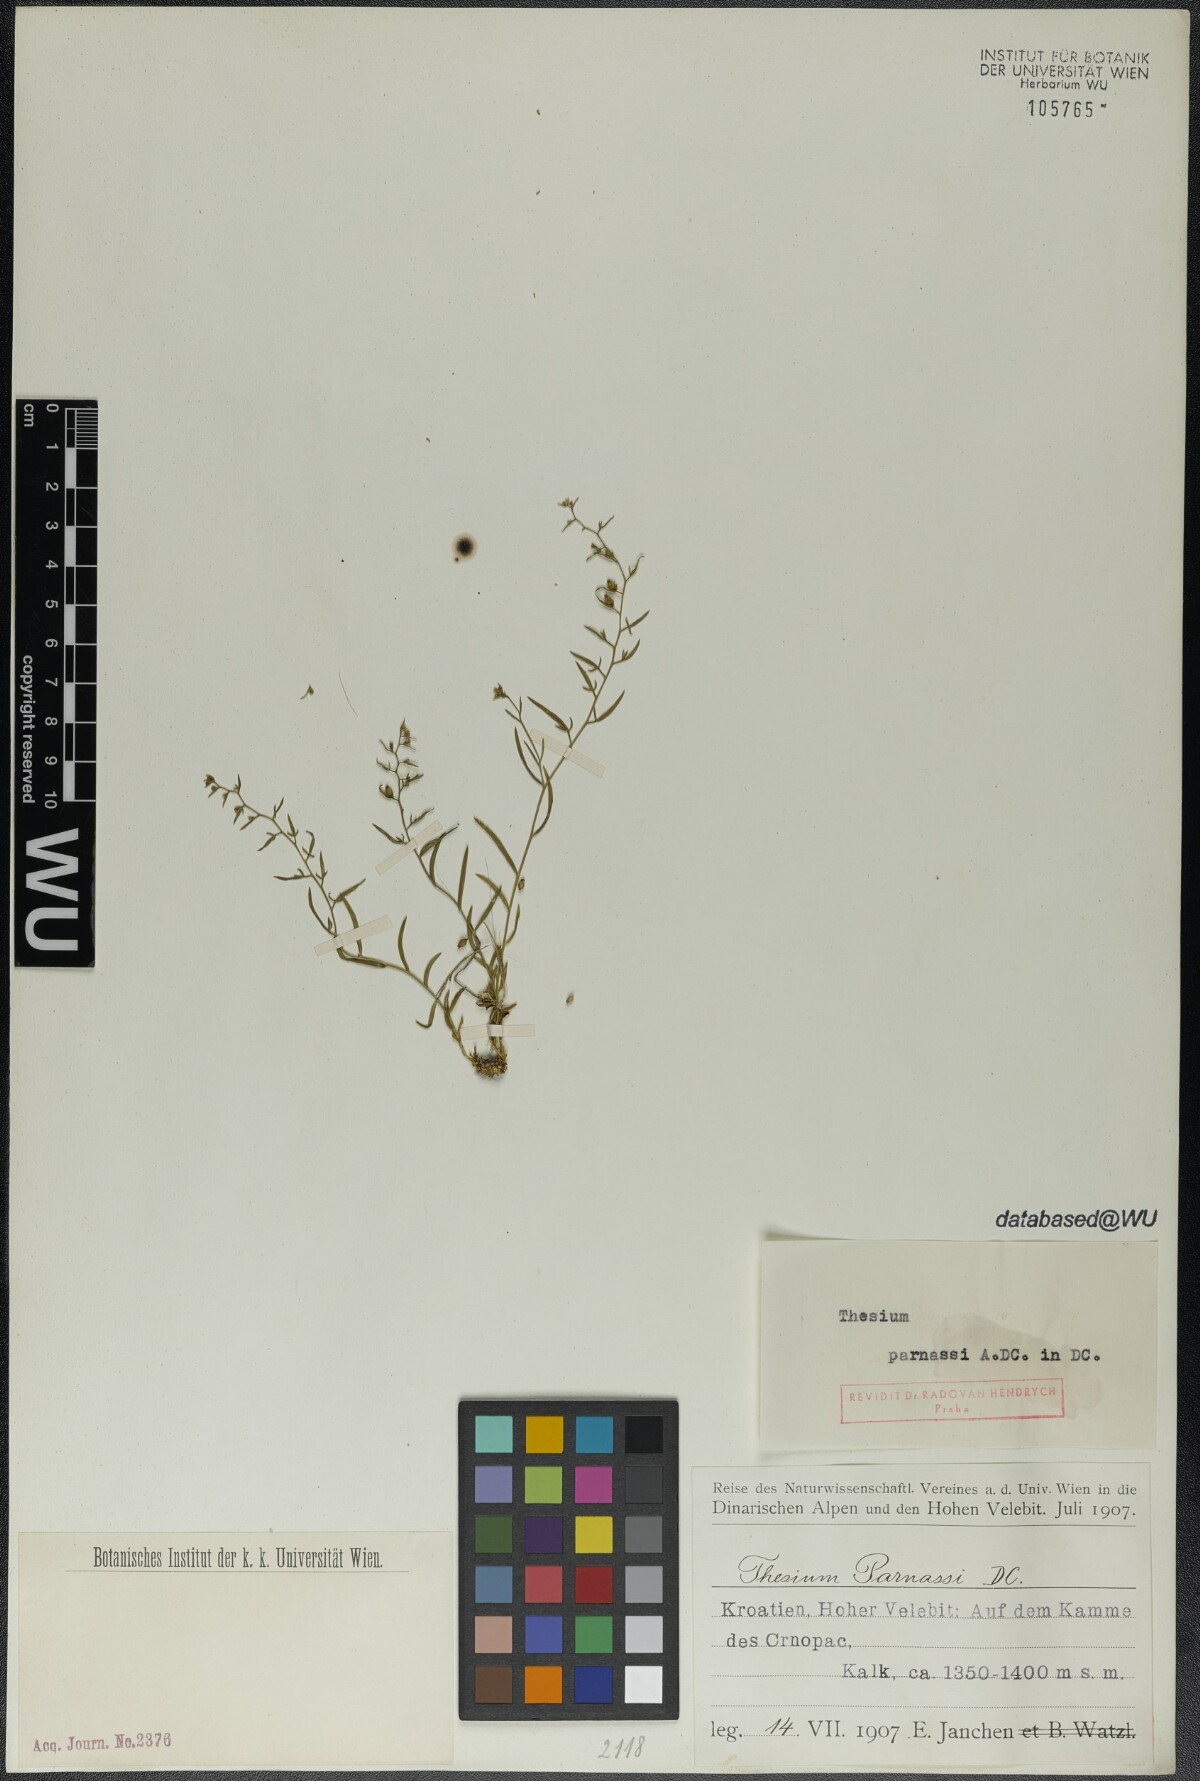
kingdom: Plantae
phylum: Tracheophyta
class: Magnoliopsida
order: Santalales
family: Thesiaceae
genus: Thesium
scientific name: Thesium parnassi
